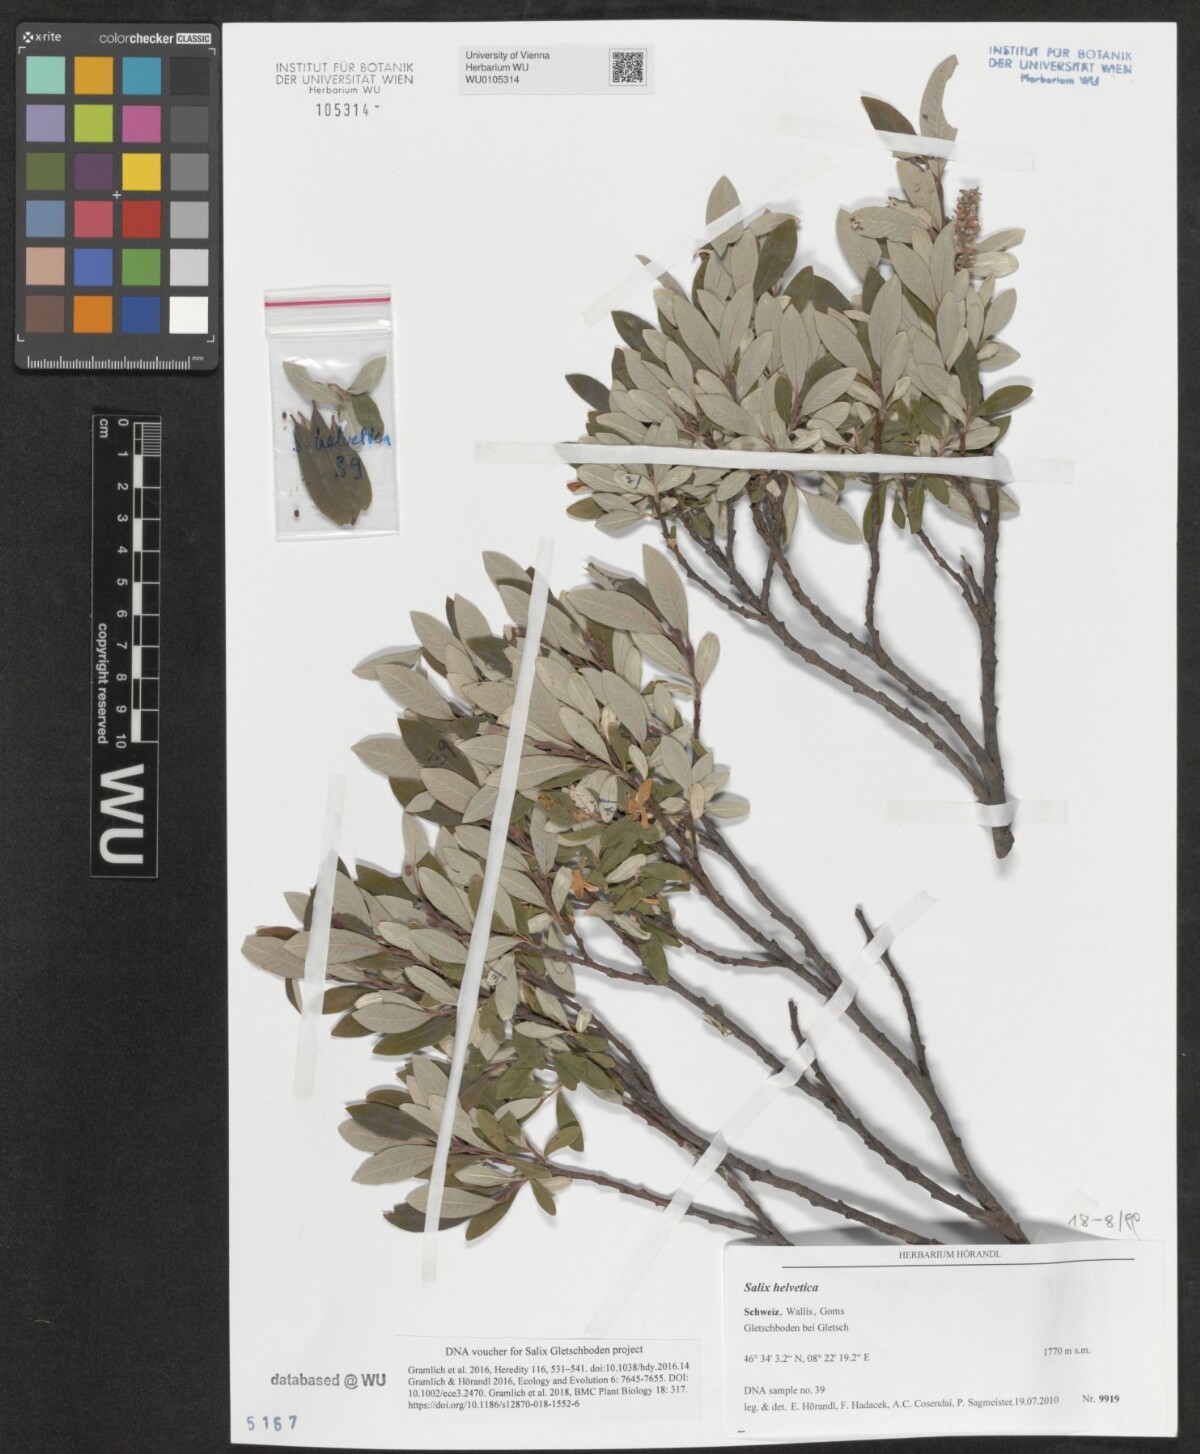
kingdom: Plantae
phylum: Tracheophyta
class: Magnoliopsida
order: Malpighiales
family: Salicaceae
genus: Salix
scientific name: Salix helvetica
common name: Swiss willow
